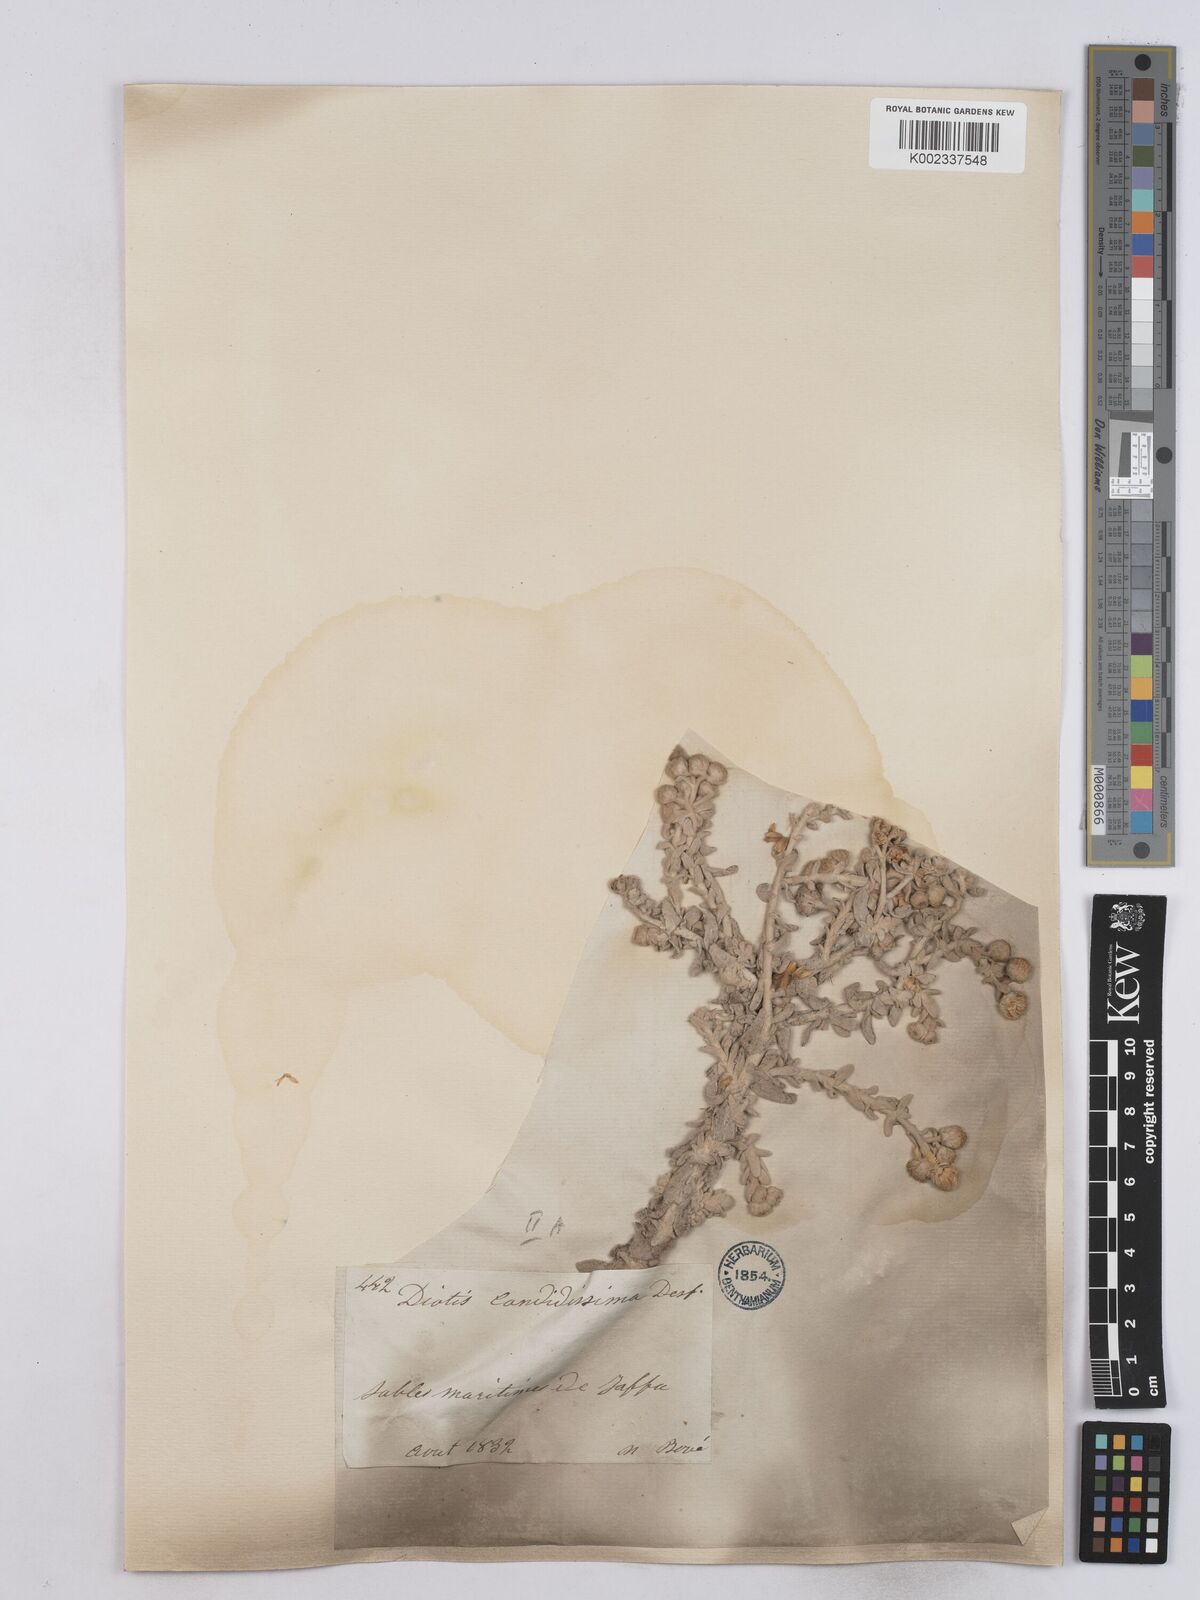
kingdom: Plantae
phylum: Tracheophyta
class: Magnoliopsida
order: Asterales
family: Asteraceae
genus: Achillea
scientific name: Achillea maritima
